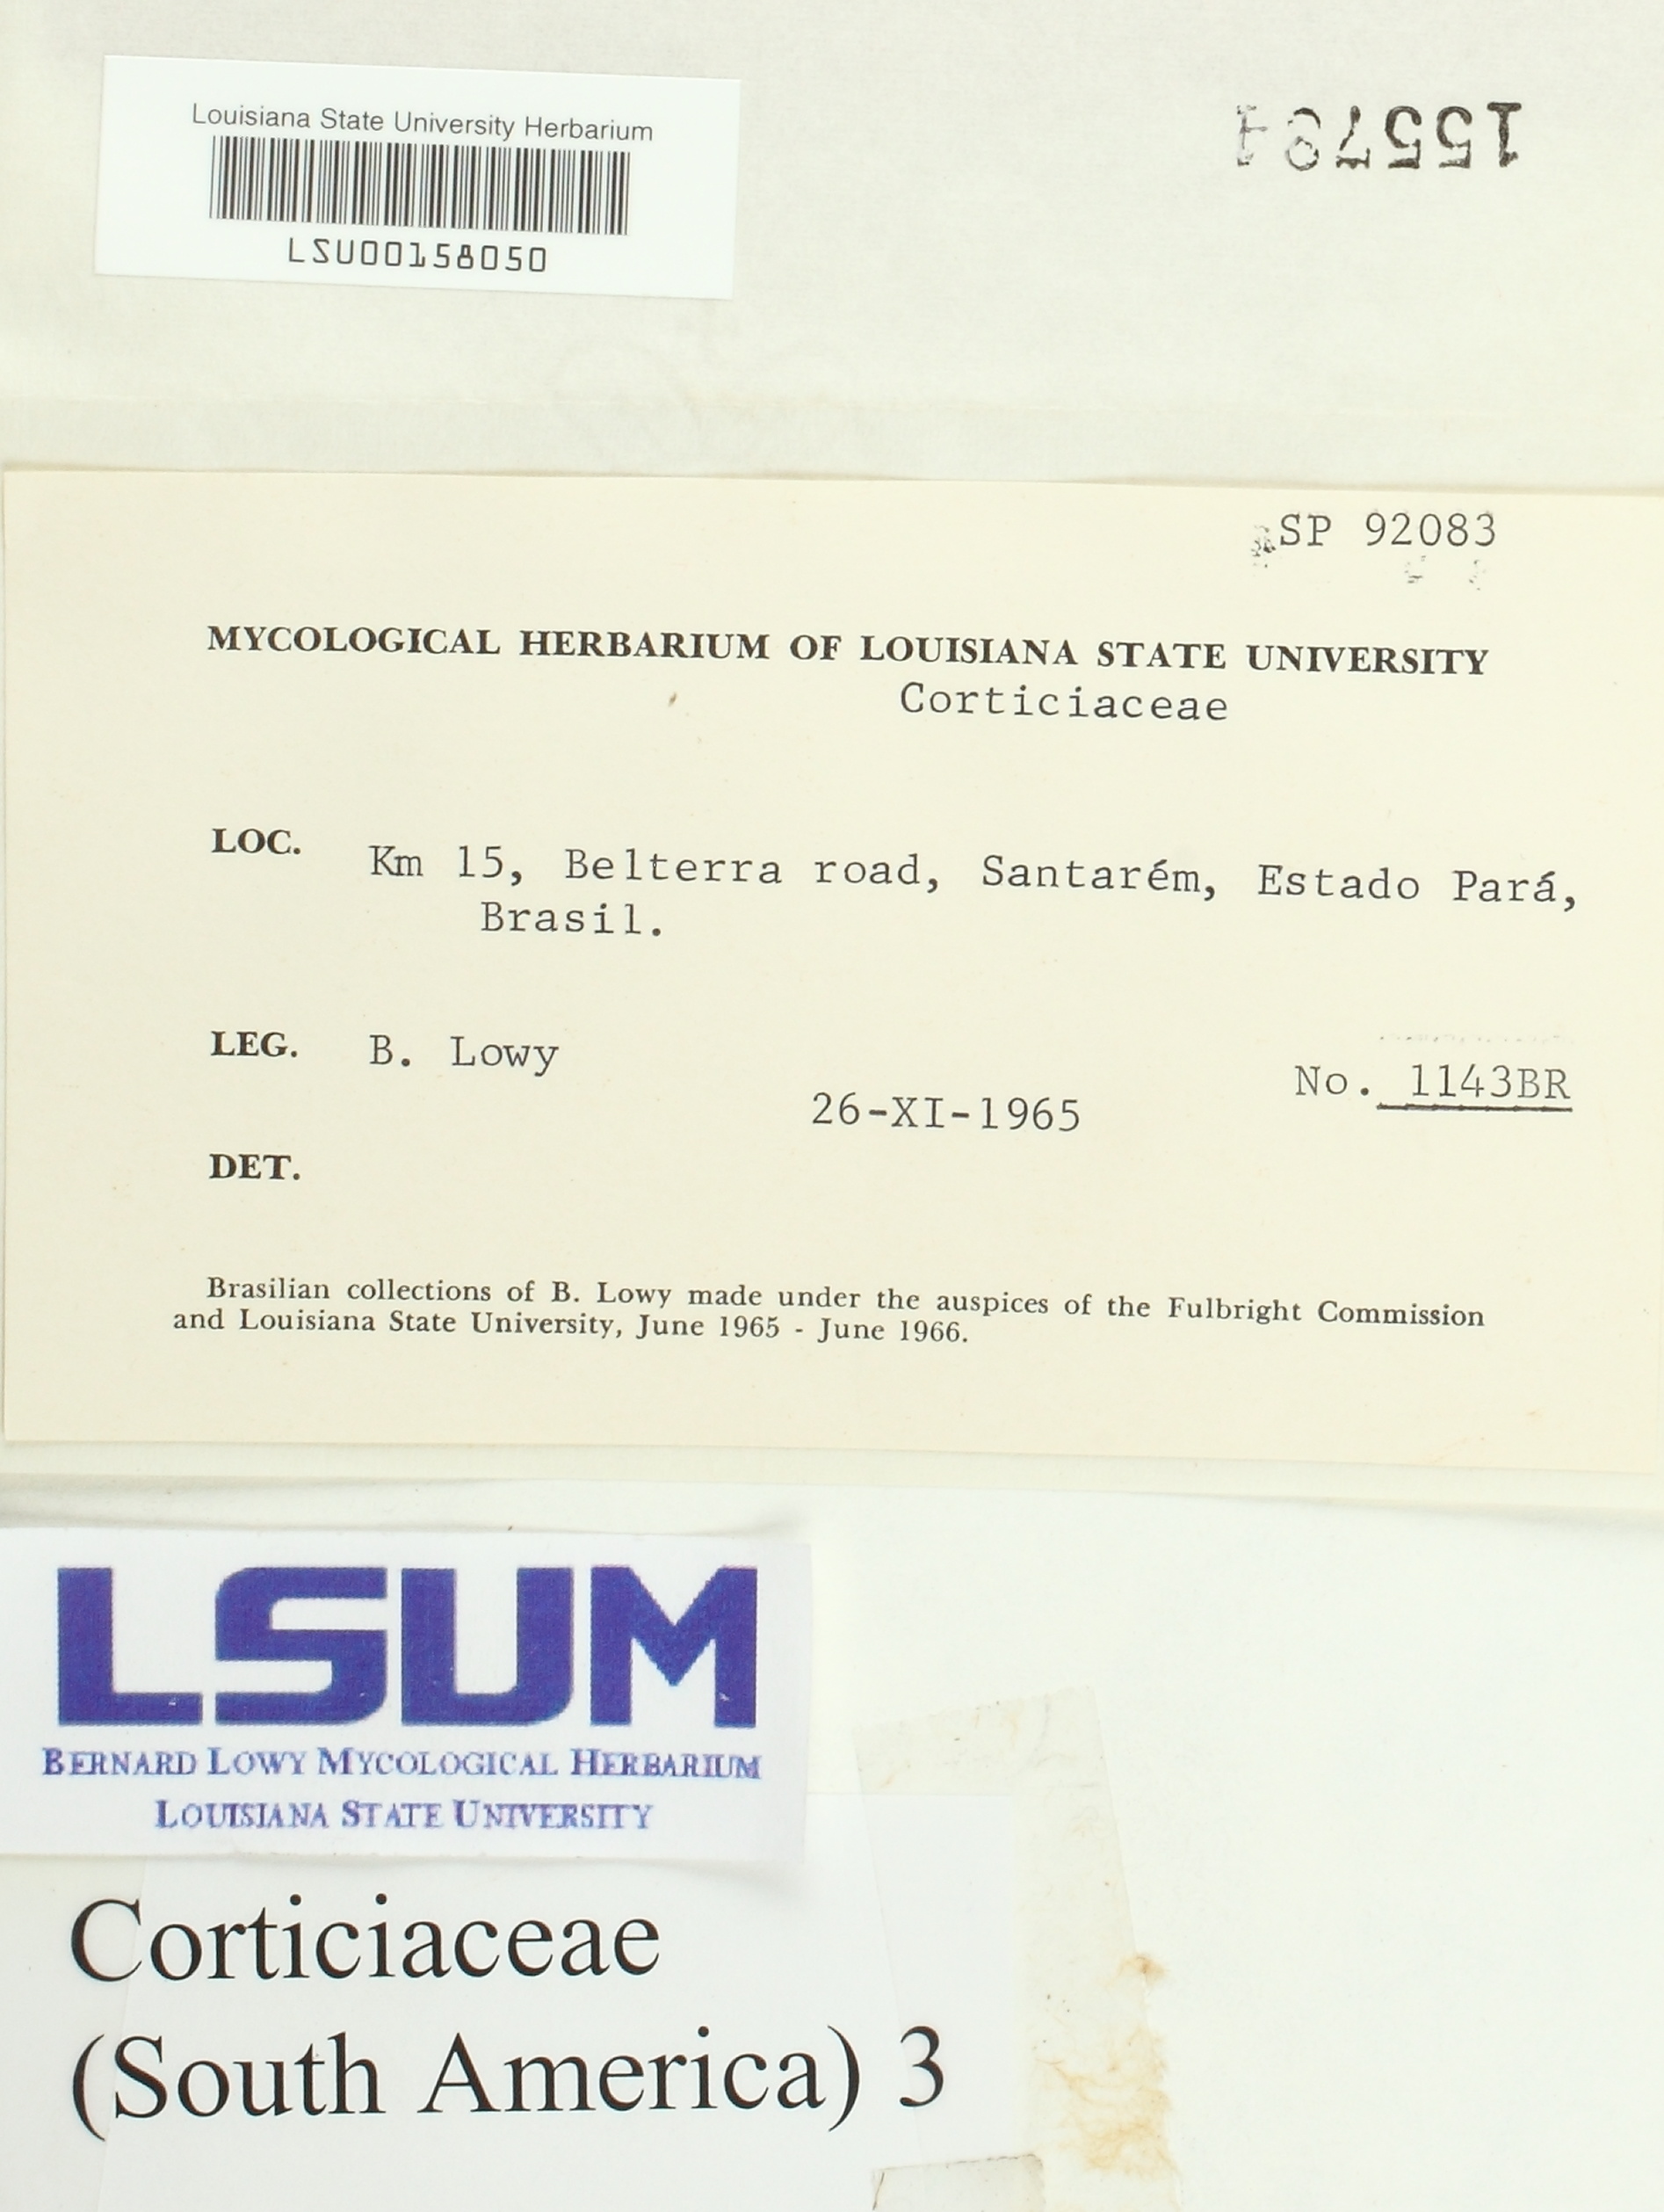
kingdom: Fungi
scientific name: Fungi
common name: Fungi
